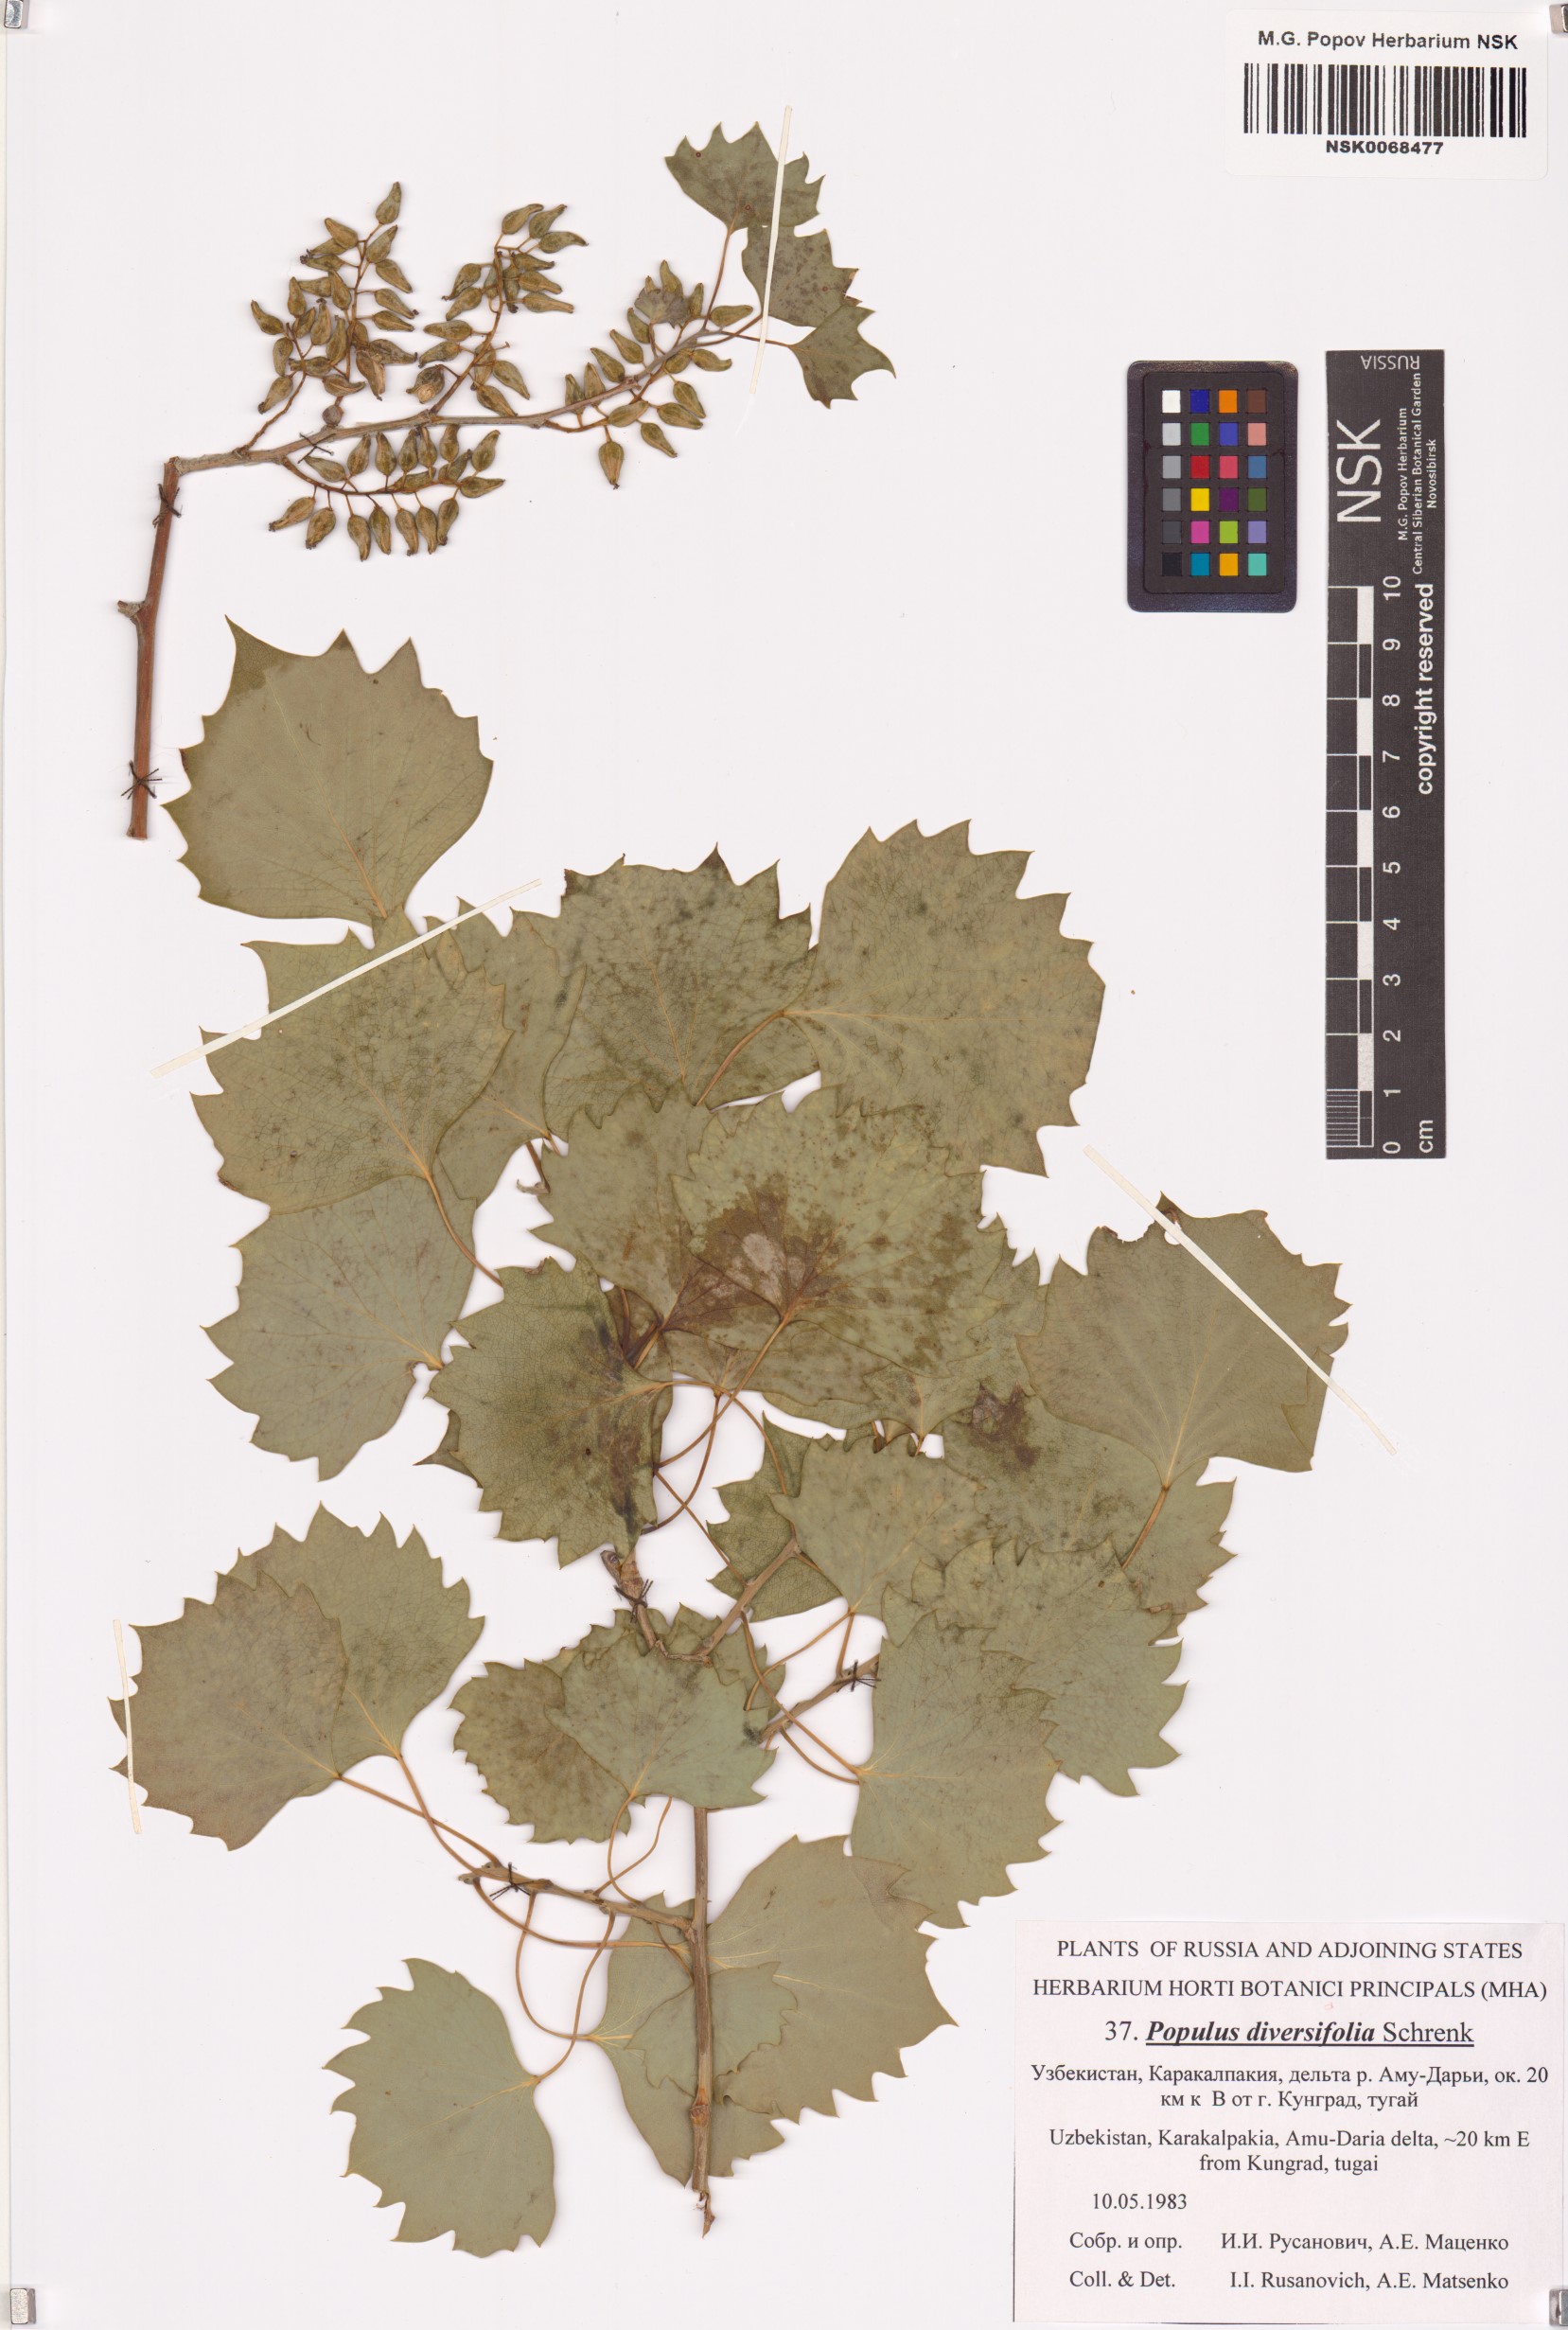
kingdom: Plantae
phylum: Tracheophyta
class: Magnoliopsida
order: Malpighiales
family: Salicaceae
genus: Populus
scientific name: Populus euphratica
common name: Euphrates poplar
